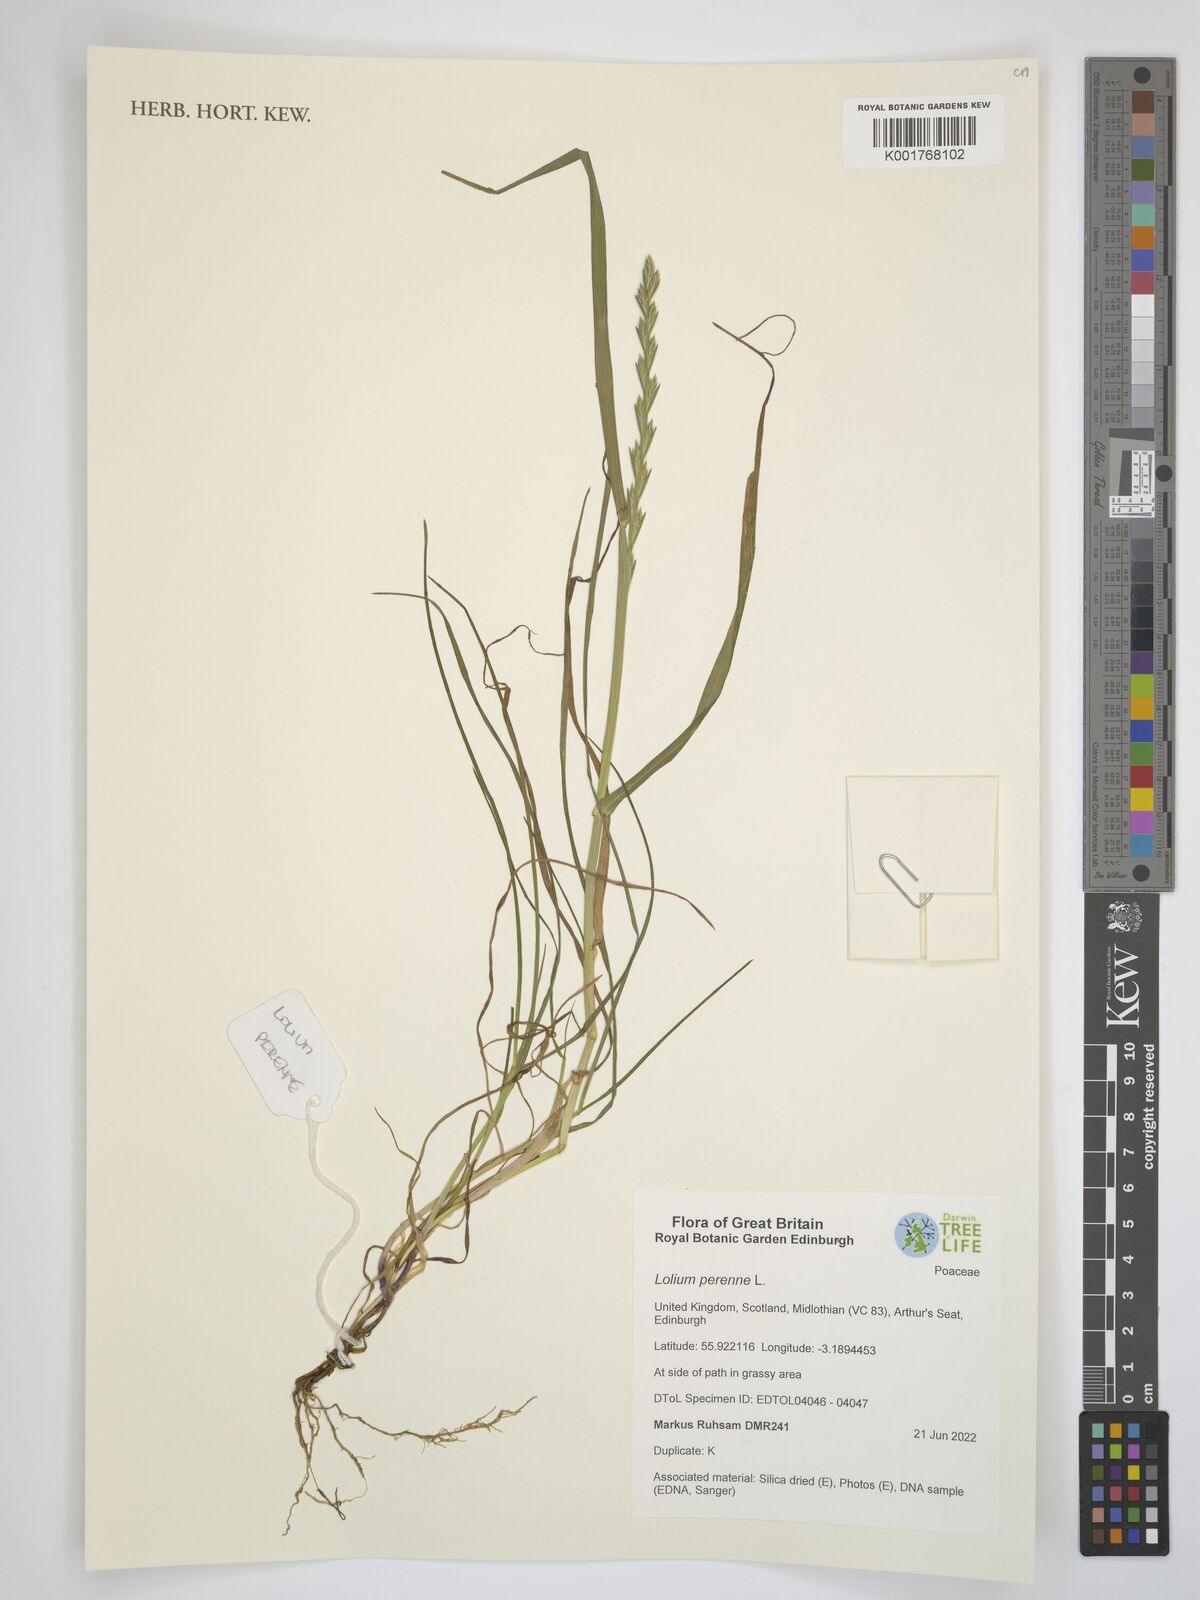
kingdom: Plantae
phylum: Tracheophyta
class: Liliopsida
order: Poales
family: Poaceae
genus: Lolium
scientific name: Lolium perenne
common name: Perennial ryegrass
